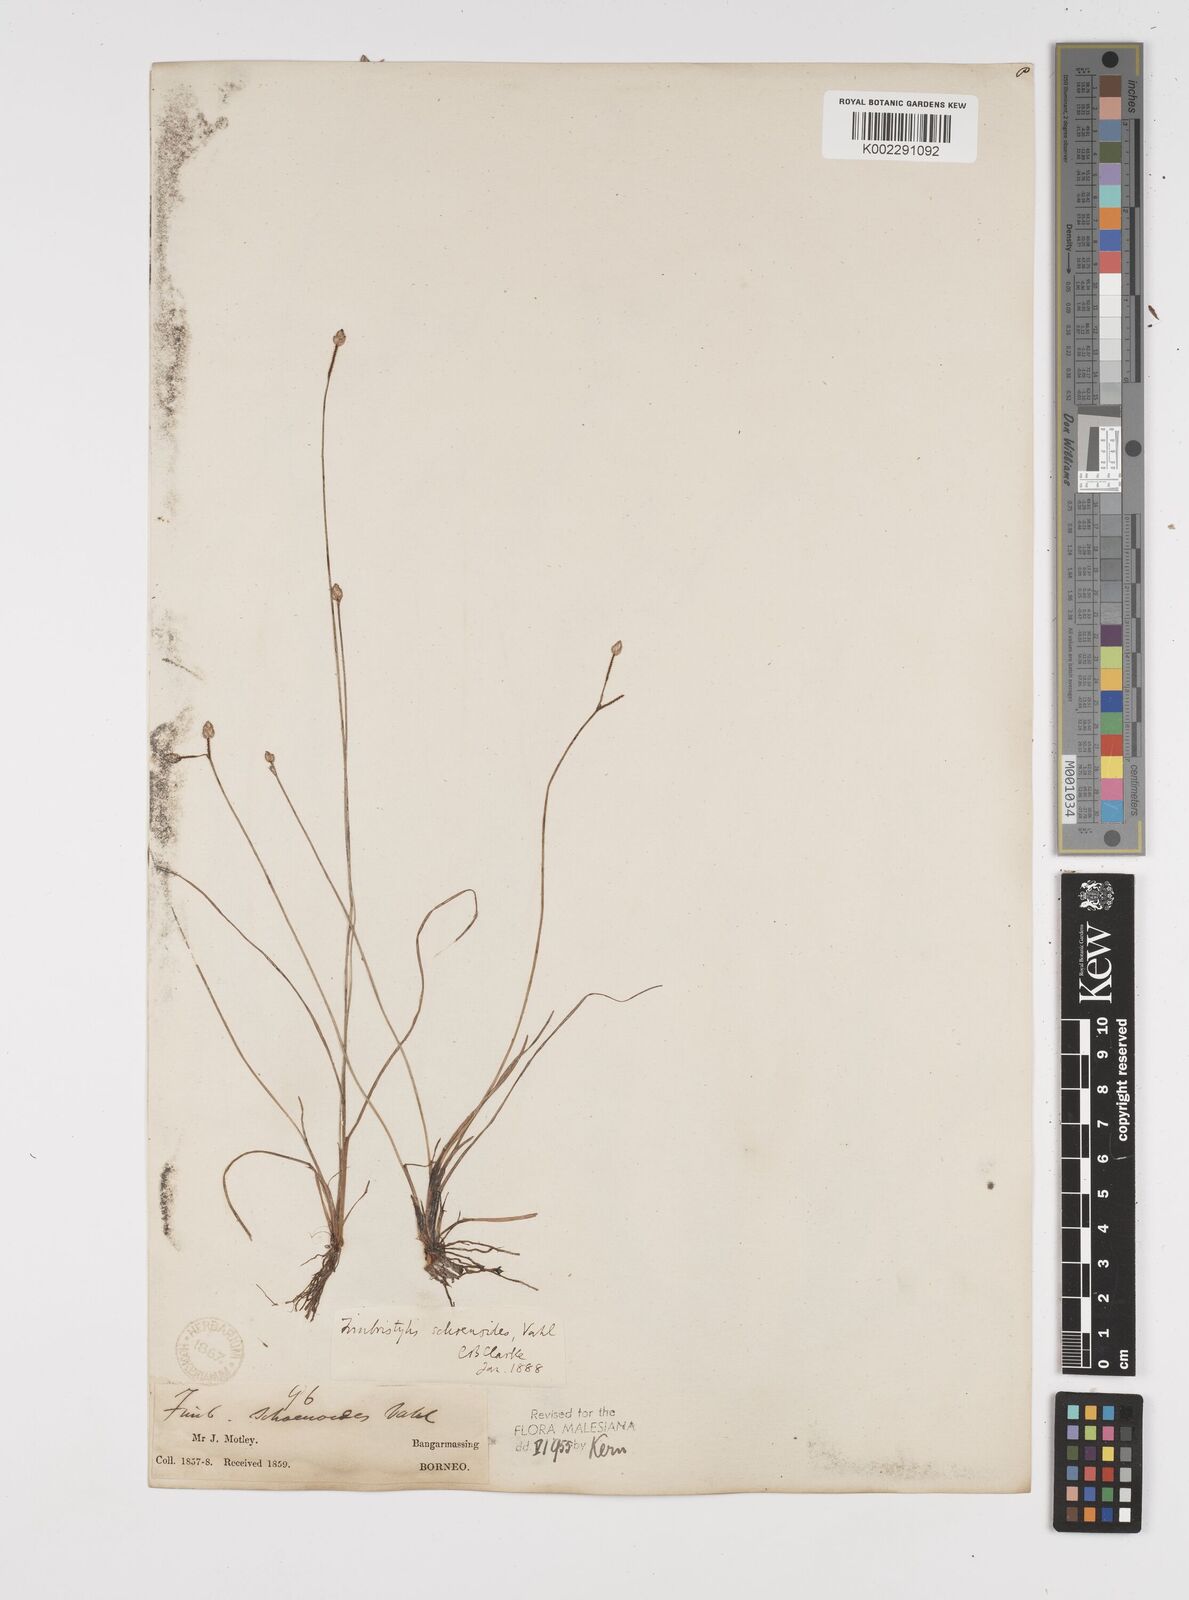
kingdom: Plantae
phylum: Tracheophyta
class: Liliopsida
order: Poales
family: Cyperaceae
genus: Fimbristylis
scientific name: Fimbristylis schoenoides
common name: Ditch fimbry
